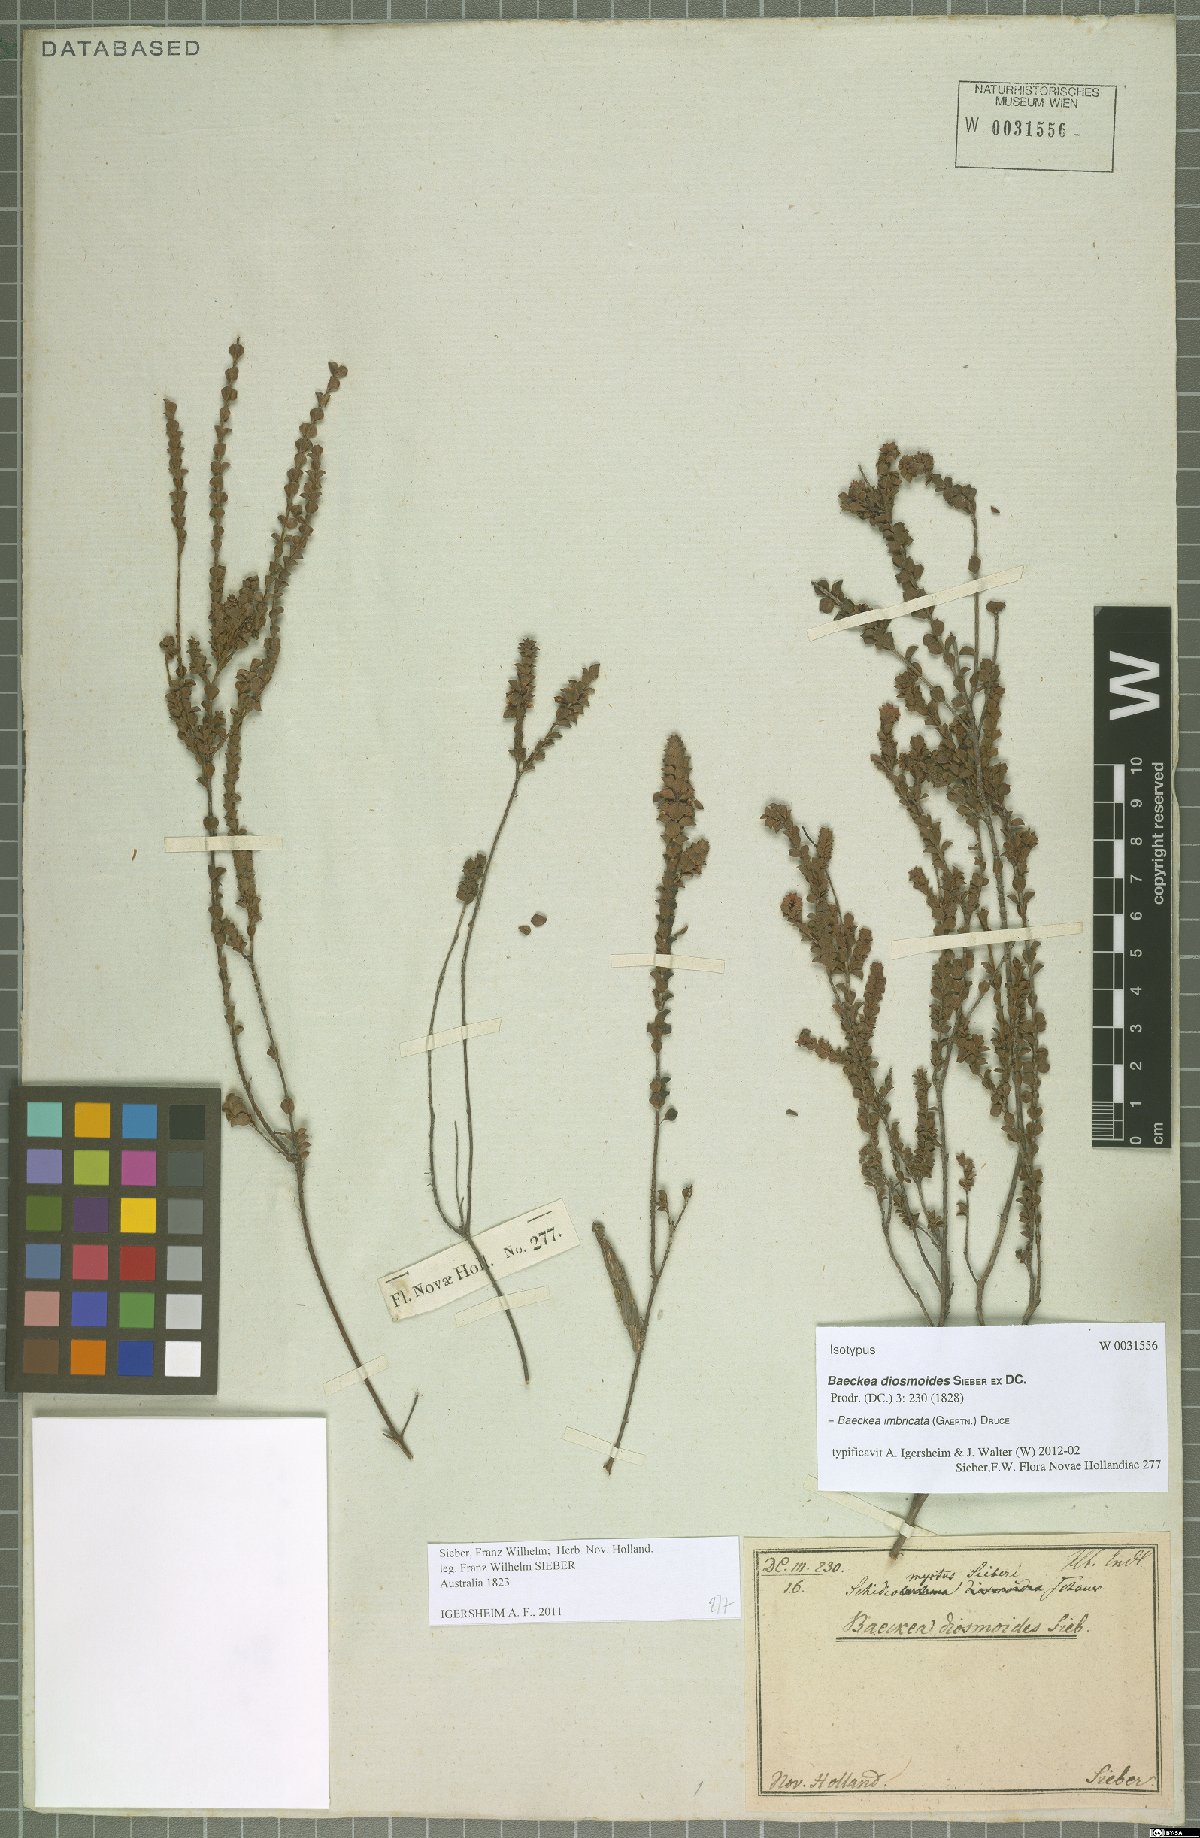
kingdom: Plantae
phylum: Tracheophyta
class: Magnoliopsida
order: Myrtales
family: Myrtaceae
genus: Baeckea
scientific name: Baeckea imbricata
